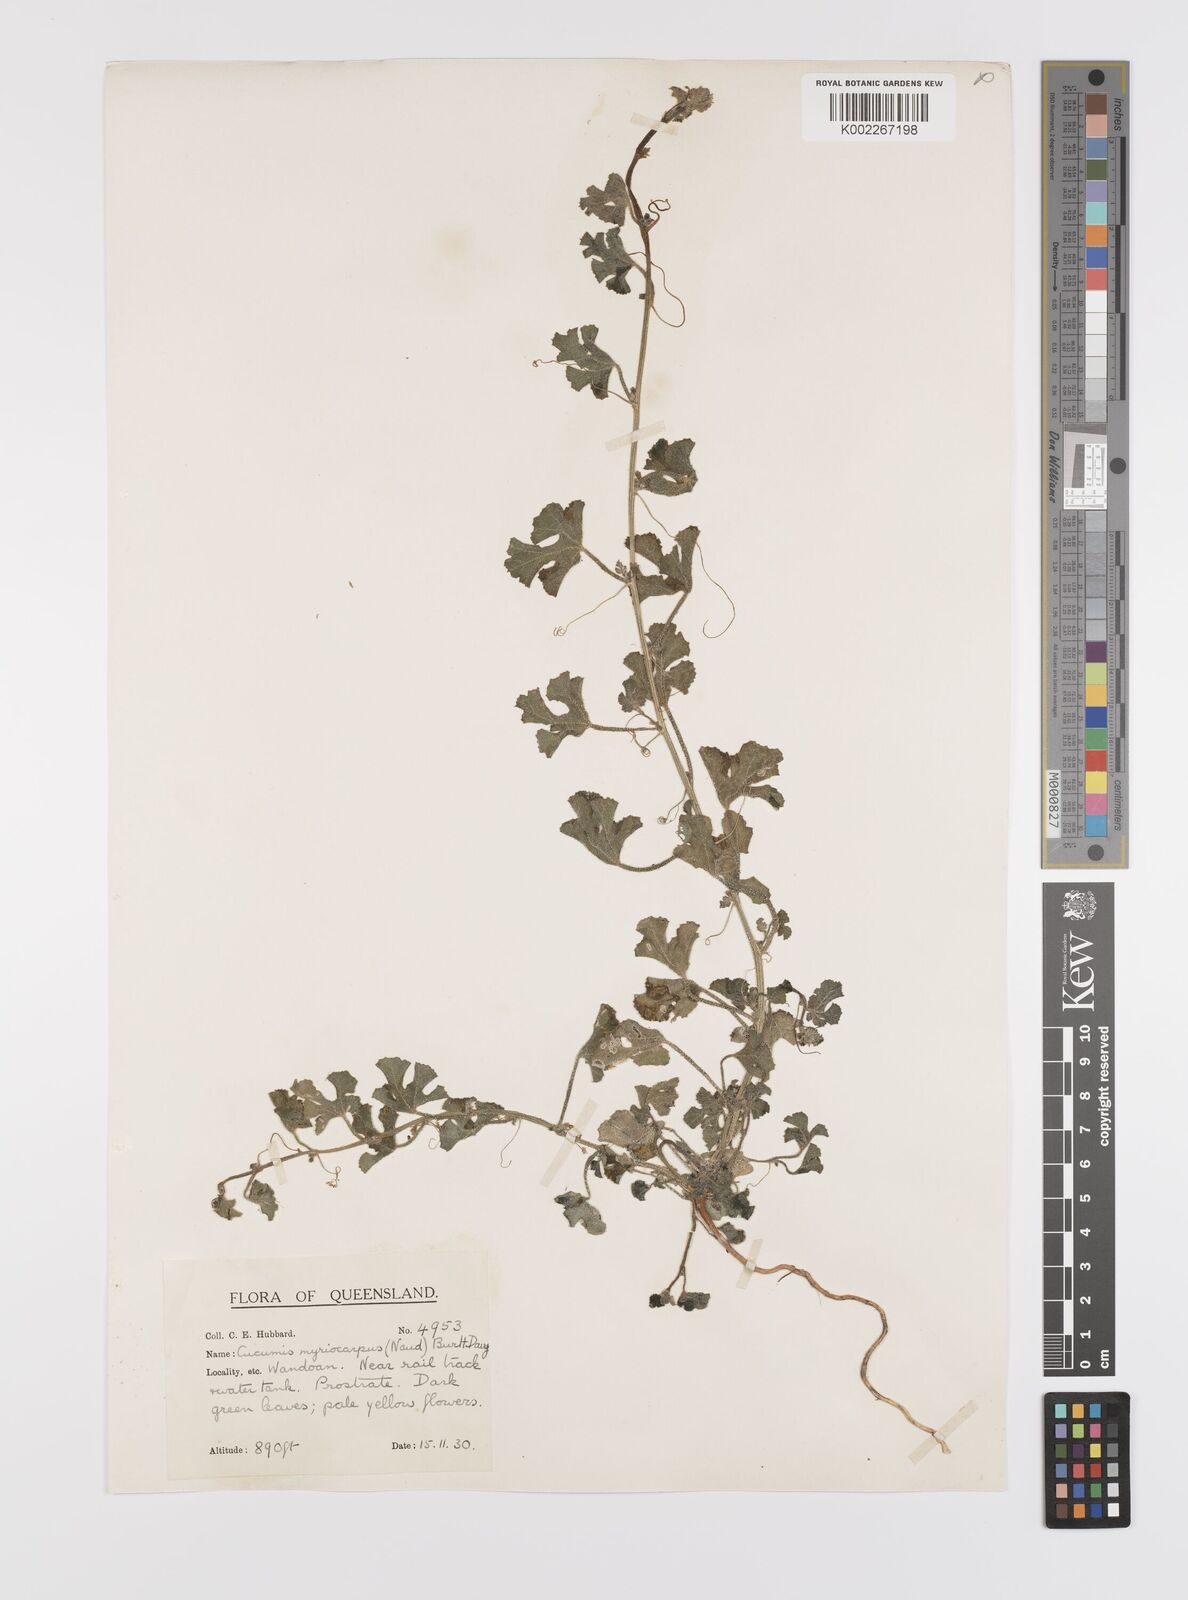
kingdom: Plantae
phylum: Tracheophyta
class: Magnoliopsida
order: Cucurbitales
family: Cucurbitaceae
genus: Cucumis
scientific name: Cucumis myriocarpus
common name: Gooseberry cucumber
